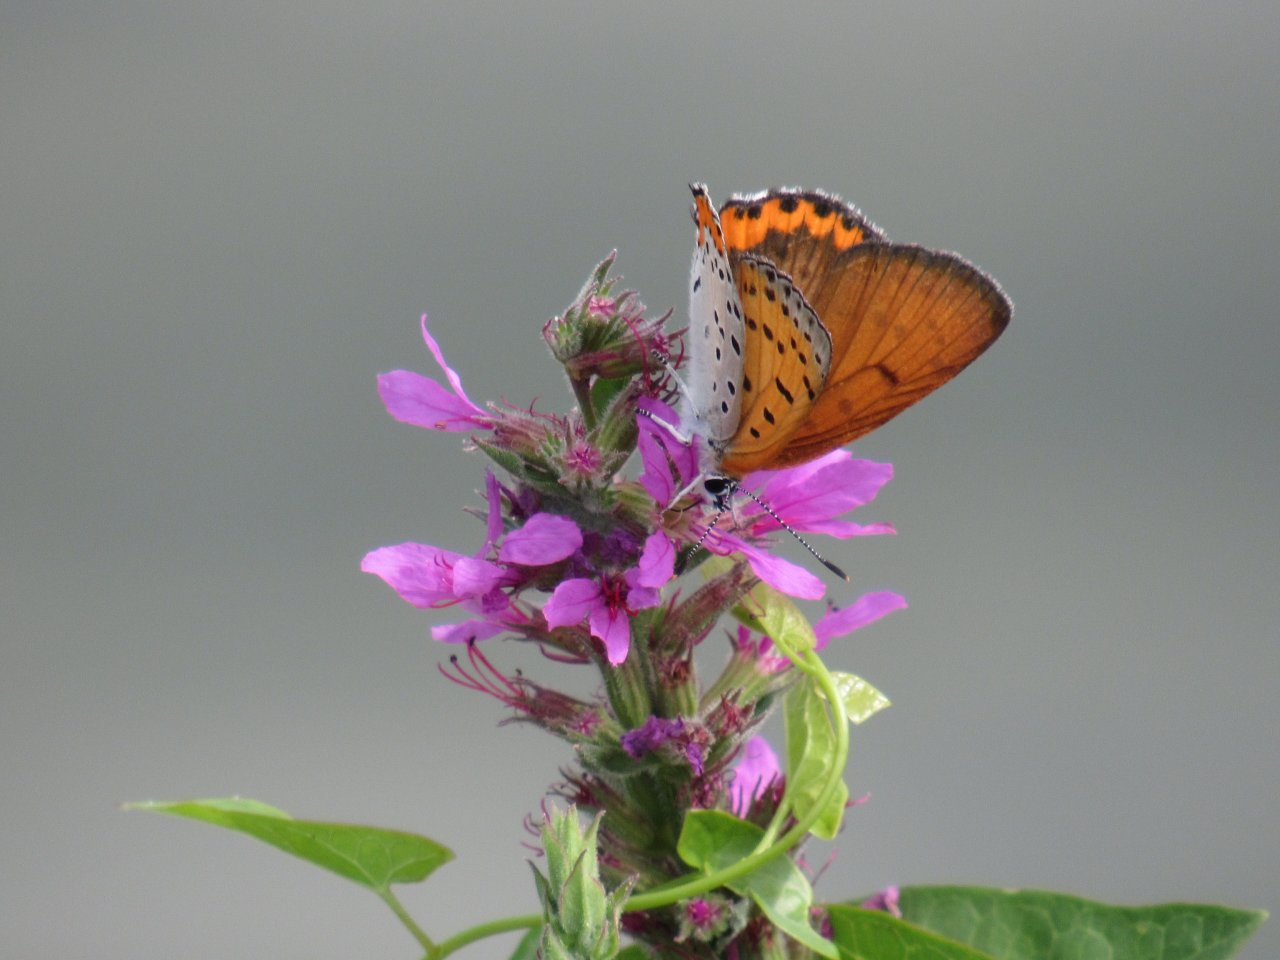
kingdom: Animalia
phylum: Arthropoda
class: Insecta
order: Lepidoptera
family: Sesiidae
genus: Sesia
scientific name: Sesia Lycaena hyllus
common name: Bronze Copper
